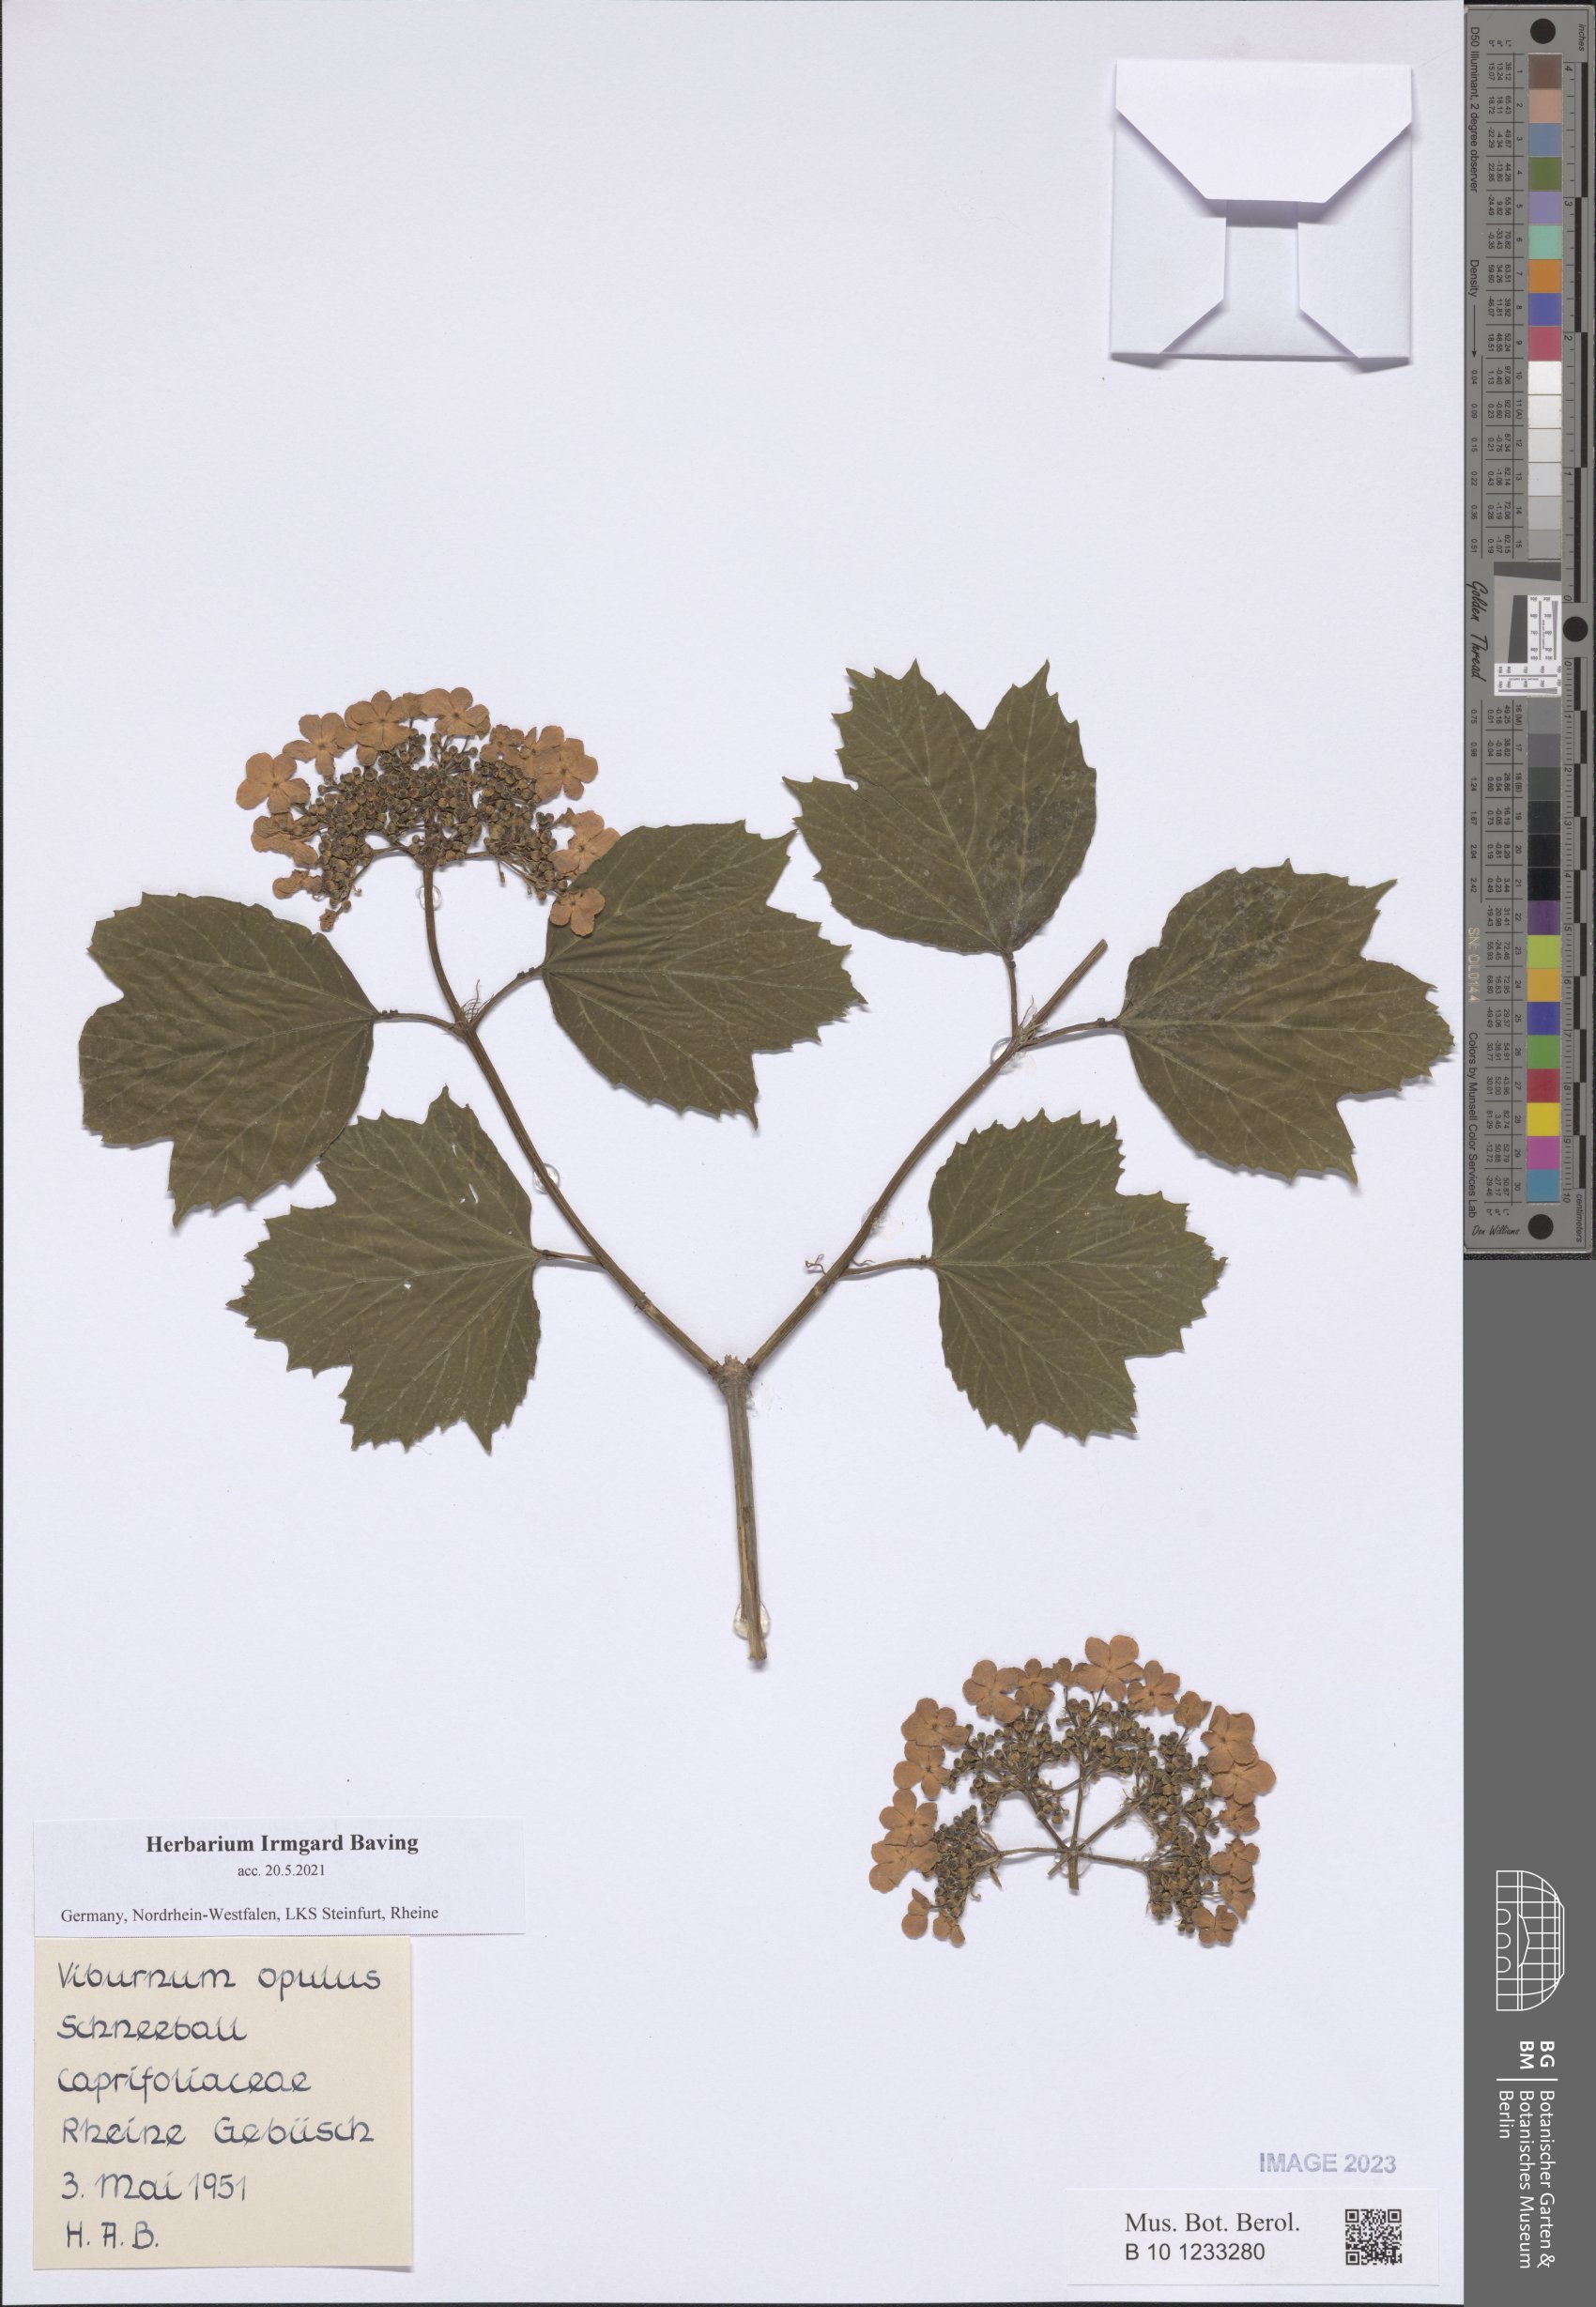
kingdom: Plantae
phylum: Tracheophyta
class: Magnoliopsida
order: Dipsacales
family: Viburnaceae
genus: Viburnum
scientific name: Viburnum opulus
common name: Guelder-rose
